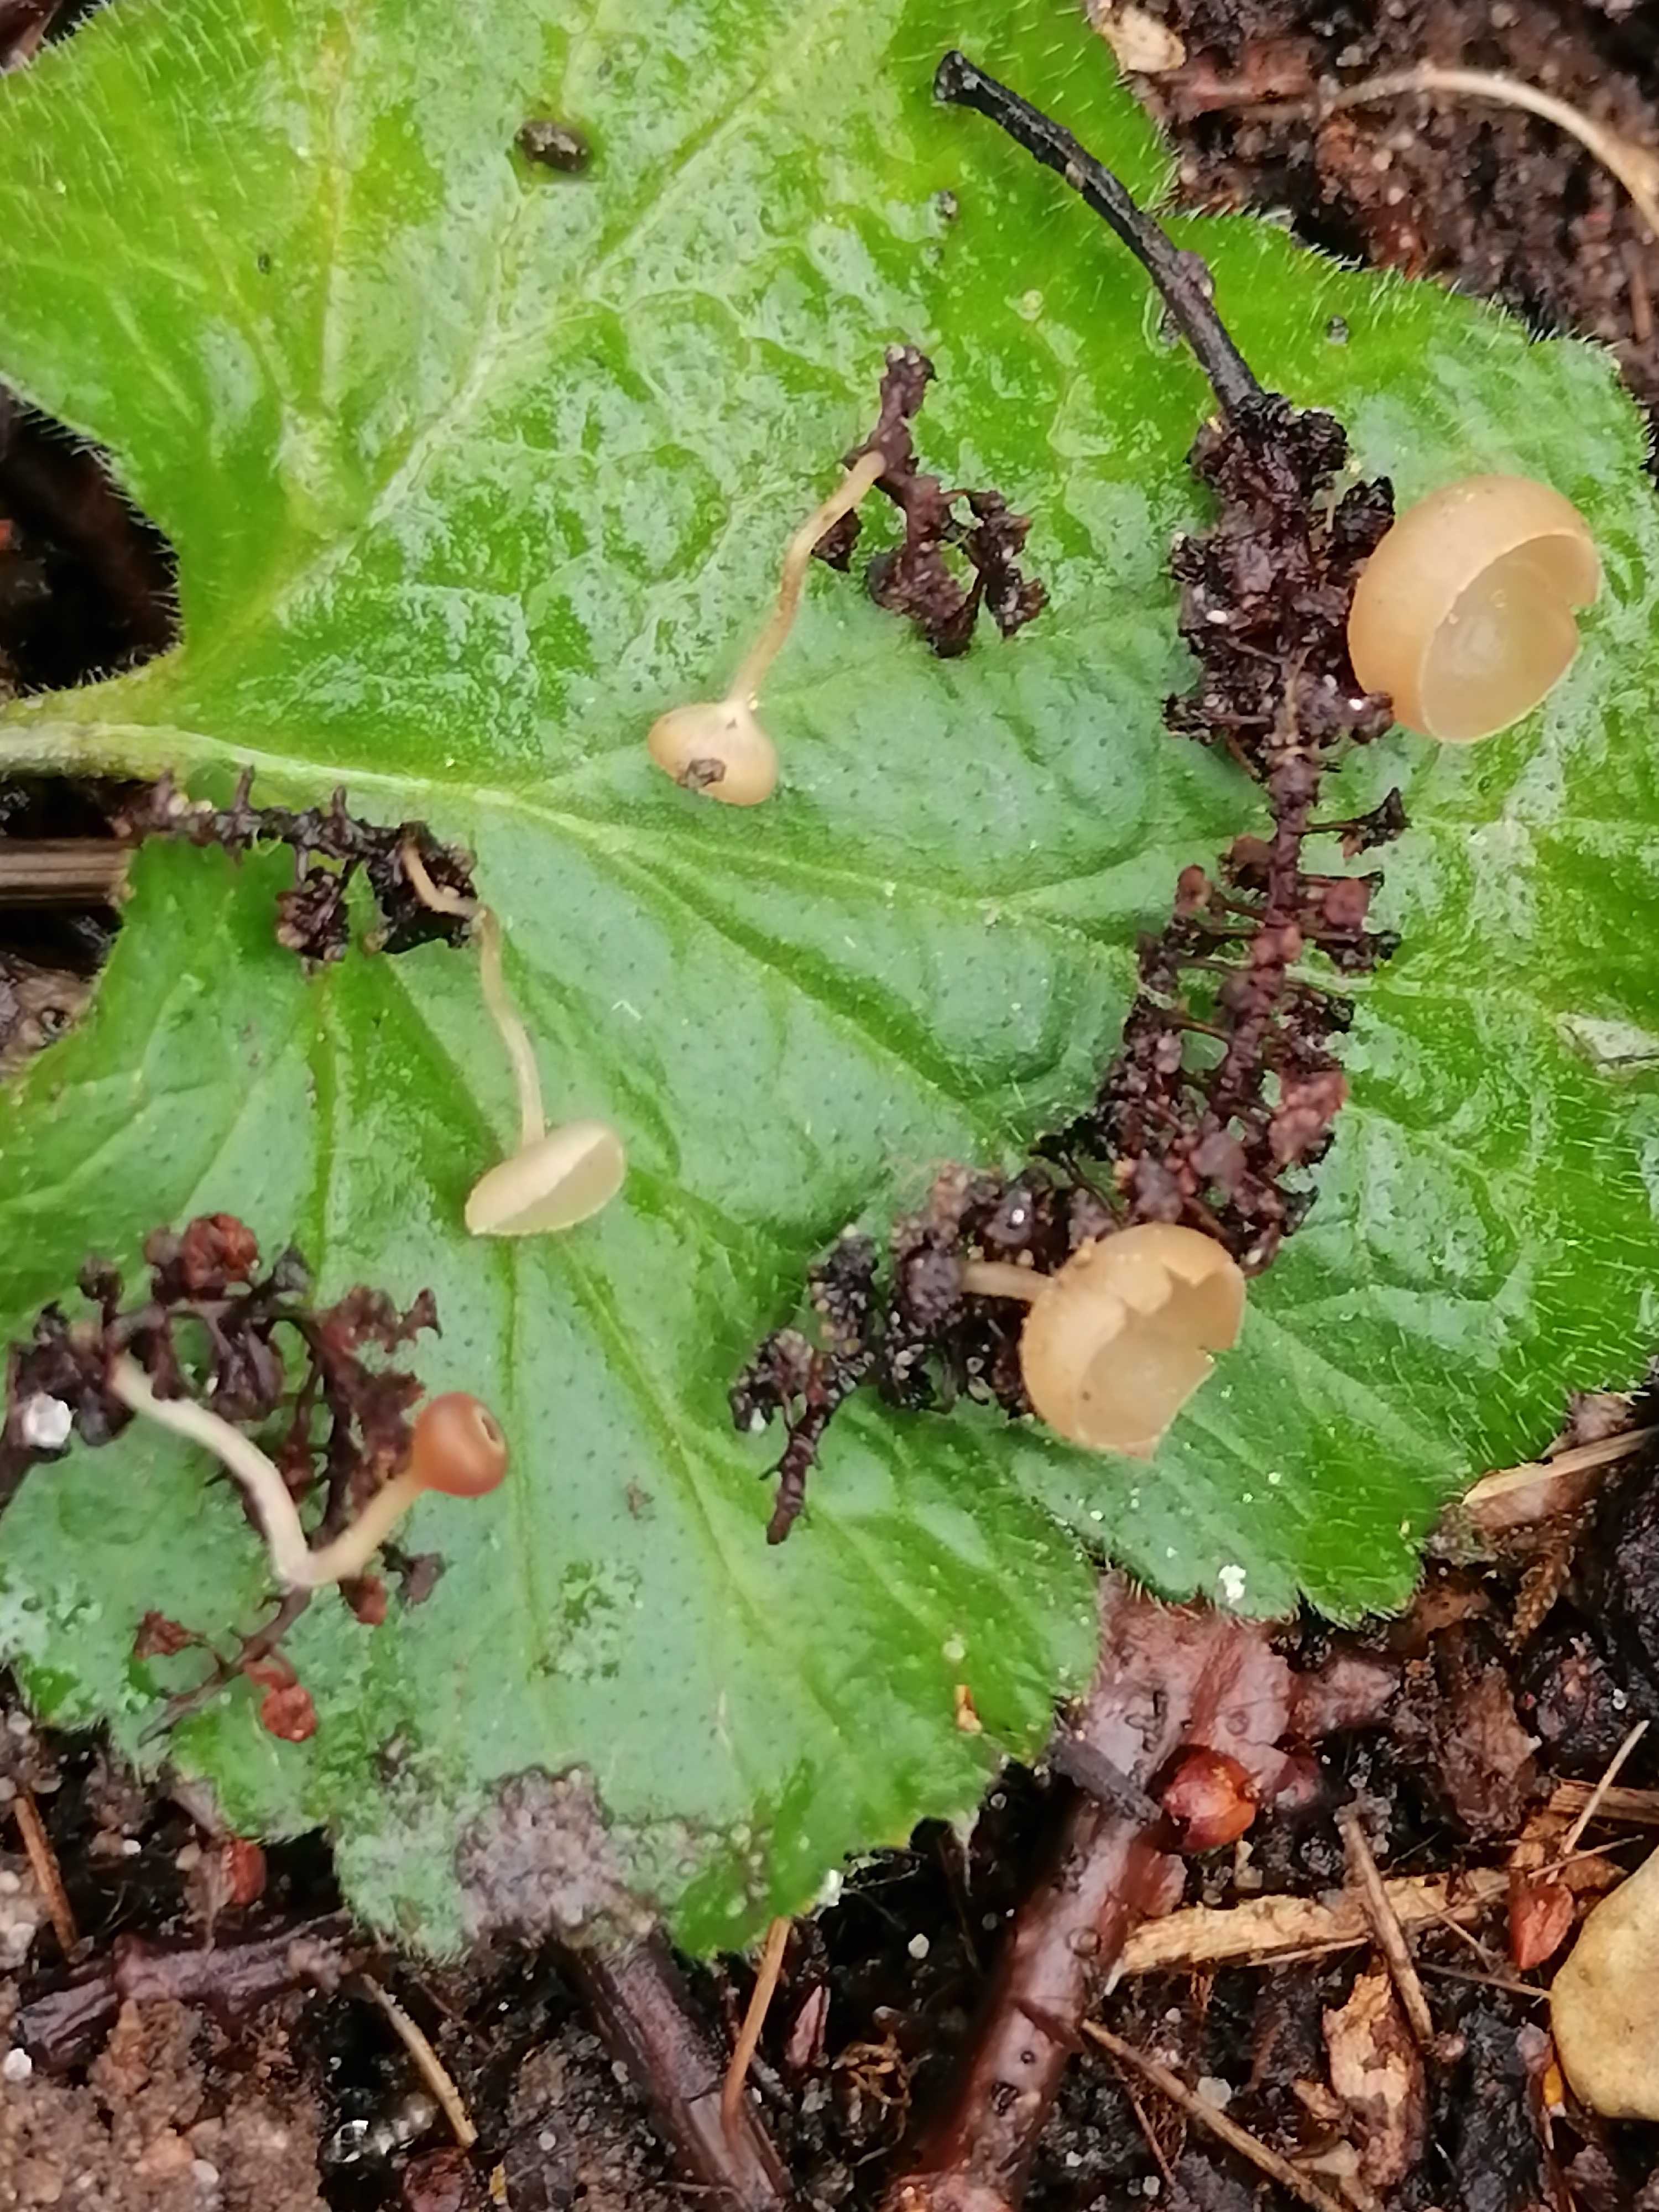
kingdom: Fungi
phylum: Ascomycota
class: Leotiomycetes
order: Helotiales
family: Sclerotiniaceae
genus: Ciboria
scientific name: Ciboria amentacea
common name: ellerakle-knoldskive
